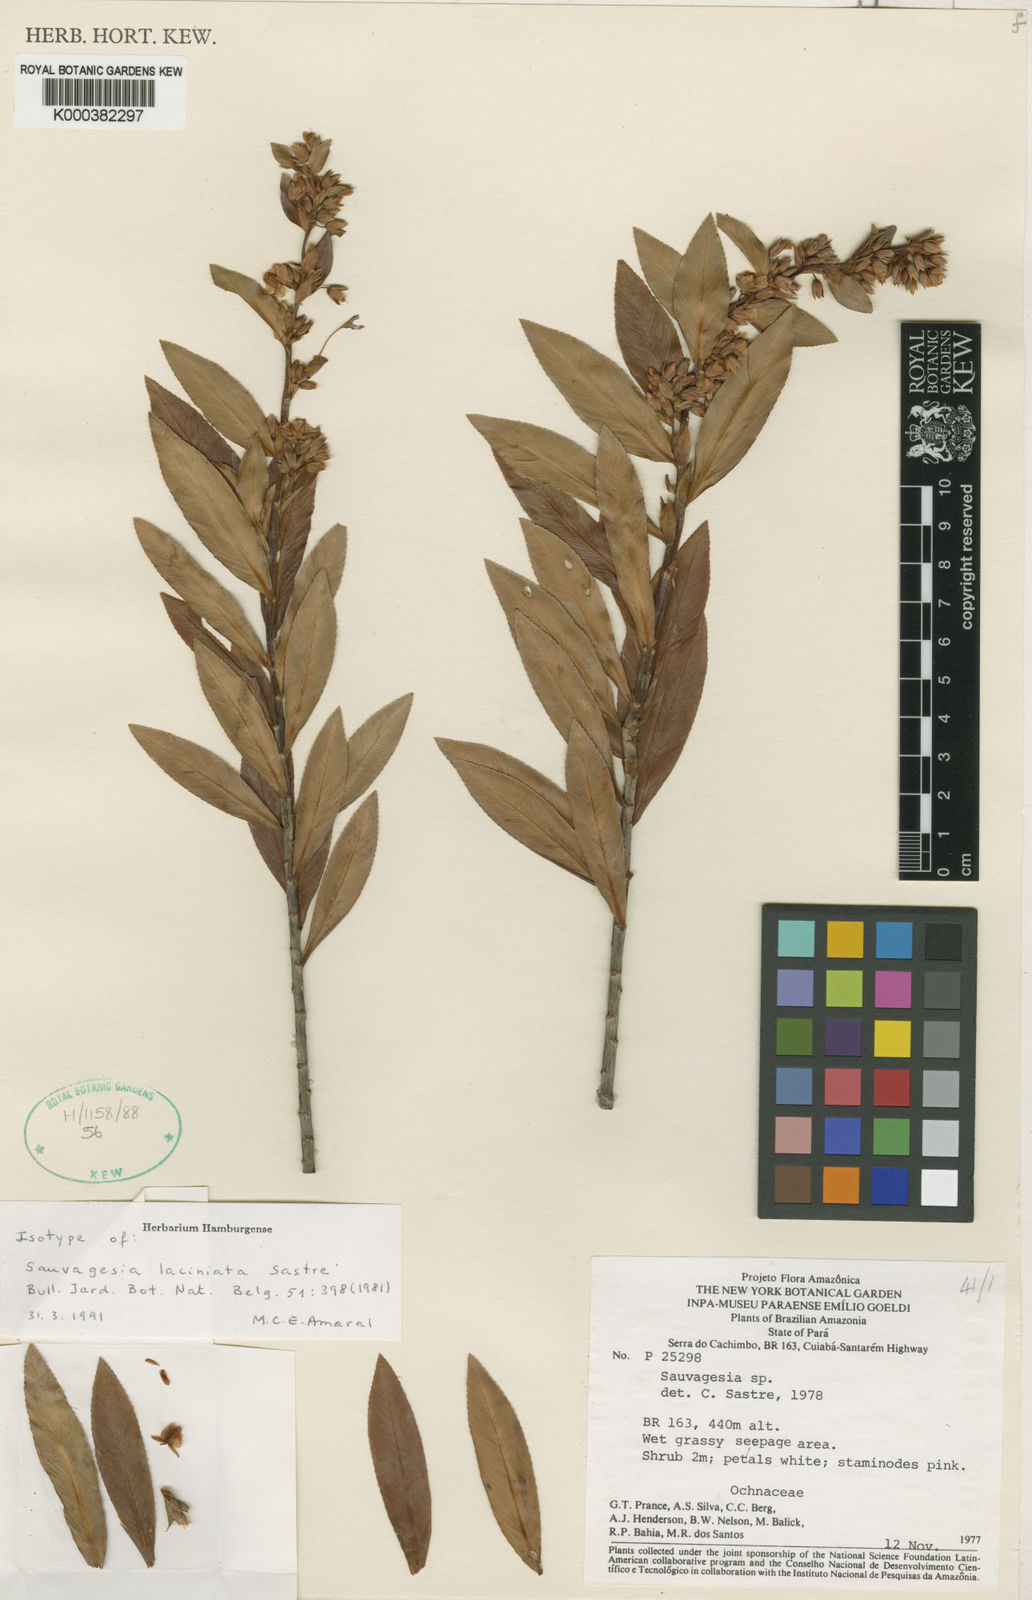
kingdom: Plantae
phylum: Tracheophyta
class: Magnoliopsida
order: Malpighiales
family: Ochnaceae
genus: Sauvagesia
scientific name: Sauvagesia laciniata
